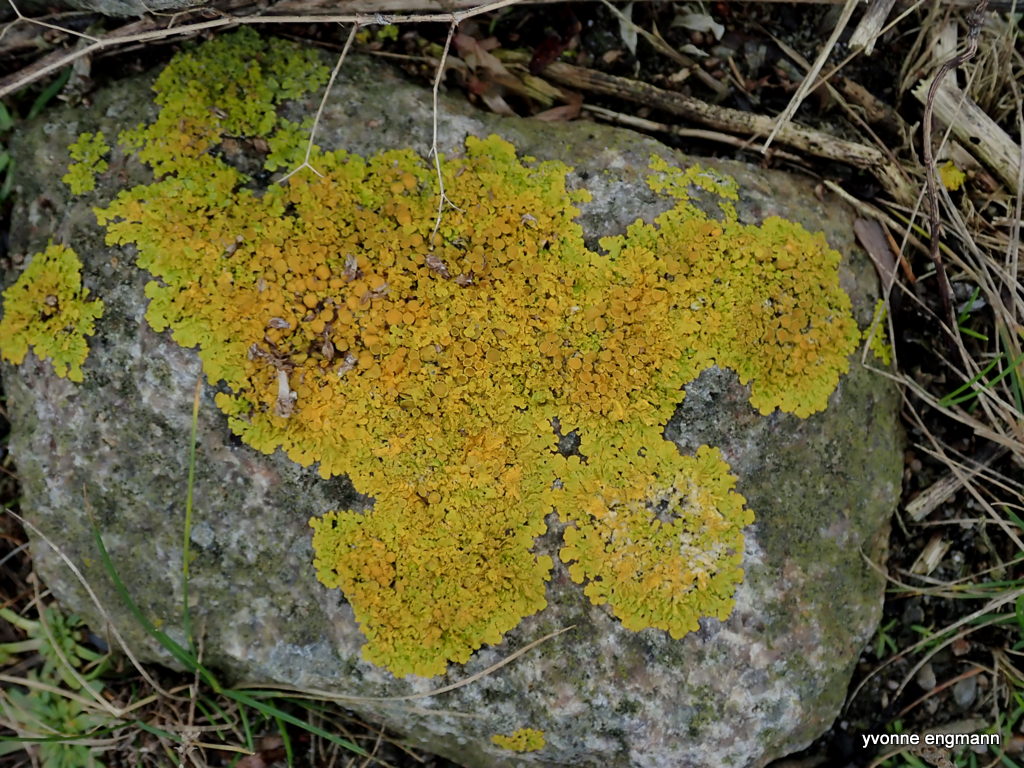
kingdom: Fungi
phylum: Ascomycota
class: Lecanoromycetes
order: Teloschistales
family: Teloschistaceae
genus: Xanthoria
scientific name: Xanthoria parietina
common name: almindelig væggelav
